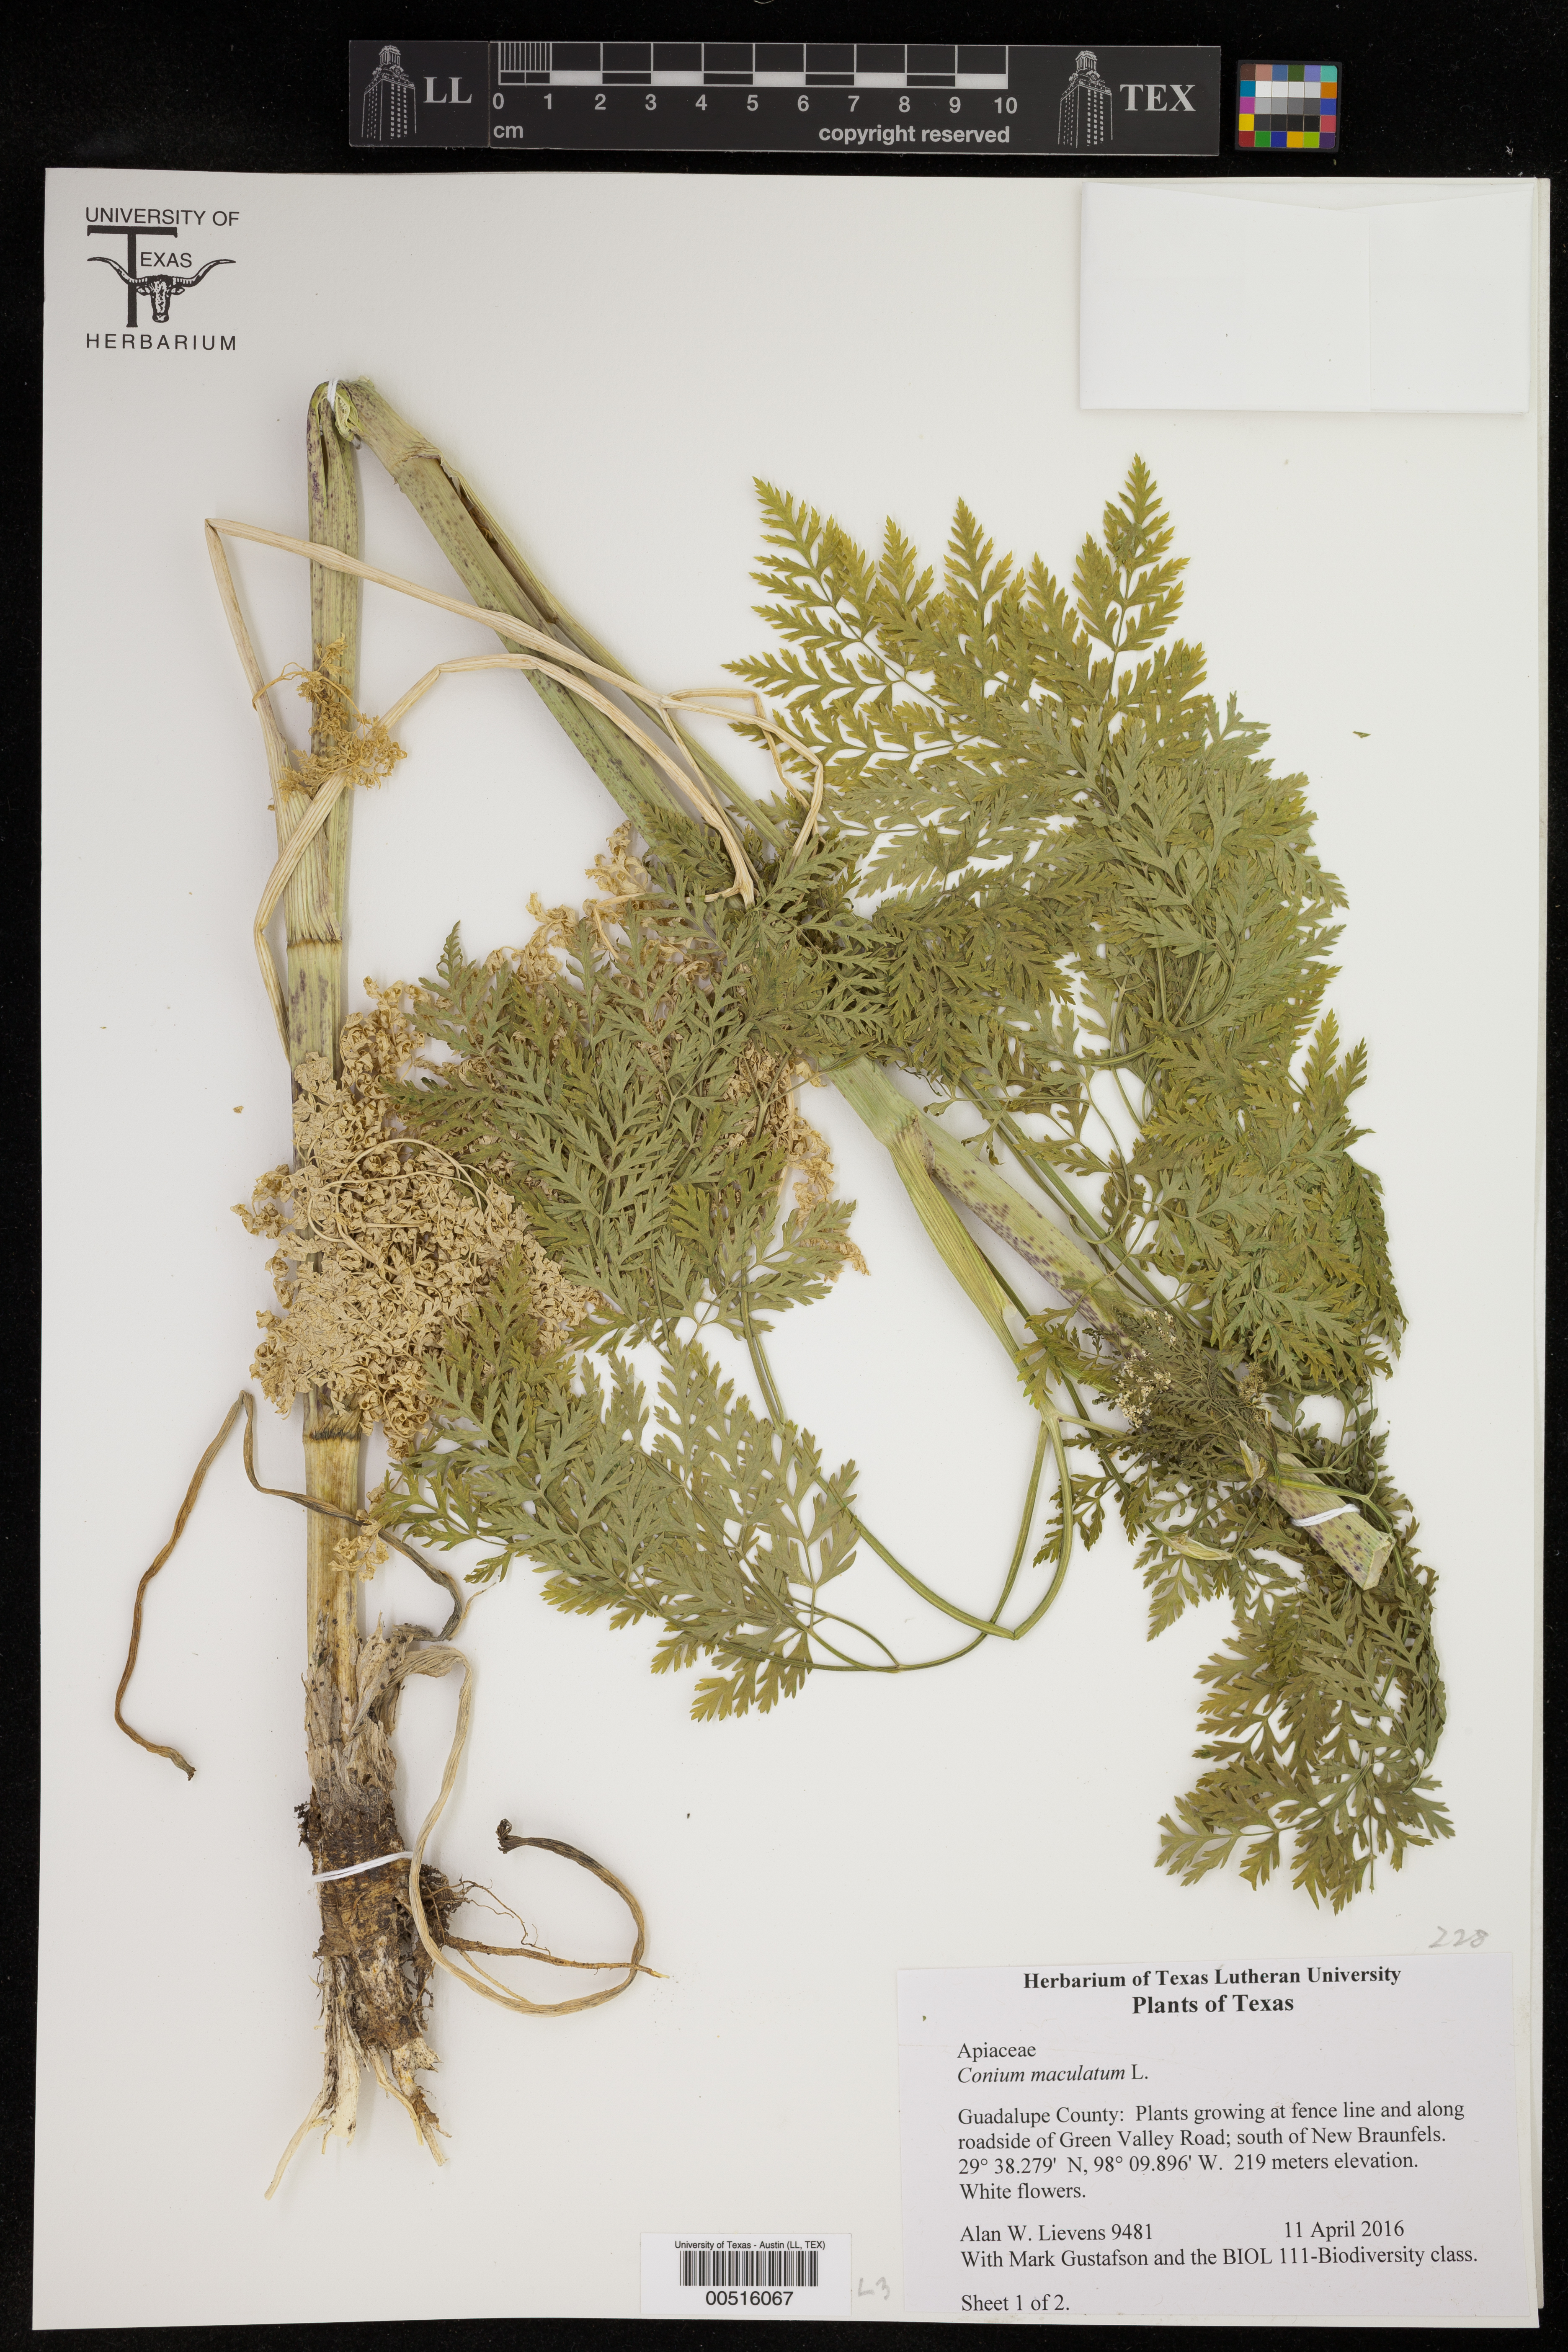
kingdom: Plantae
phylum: Tracheophyta
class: Magnoliopsida
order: Apiales
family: Apiaceae
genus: Conium
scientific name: Conium maculatum
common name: Hemlock
